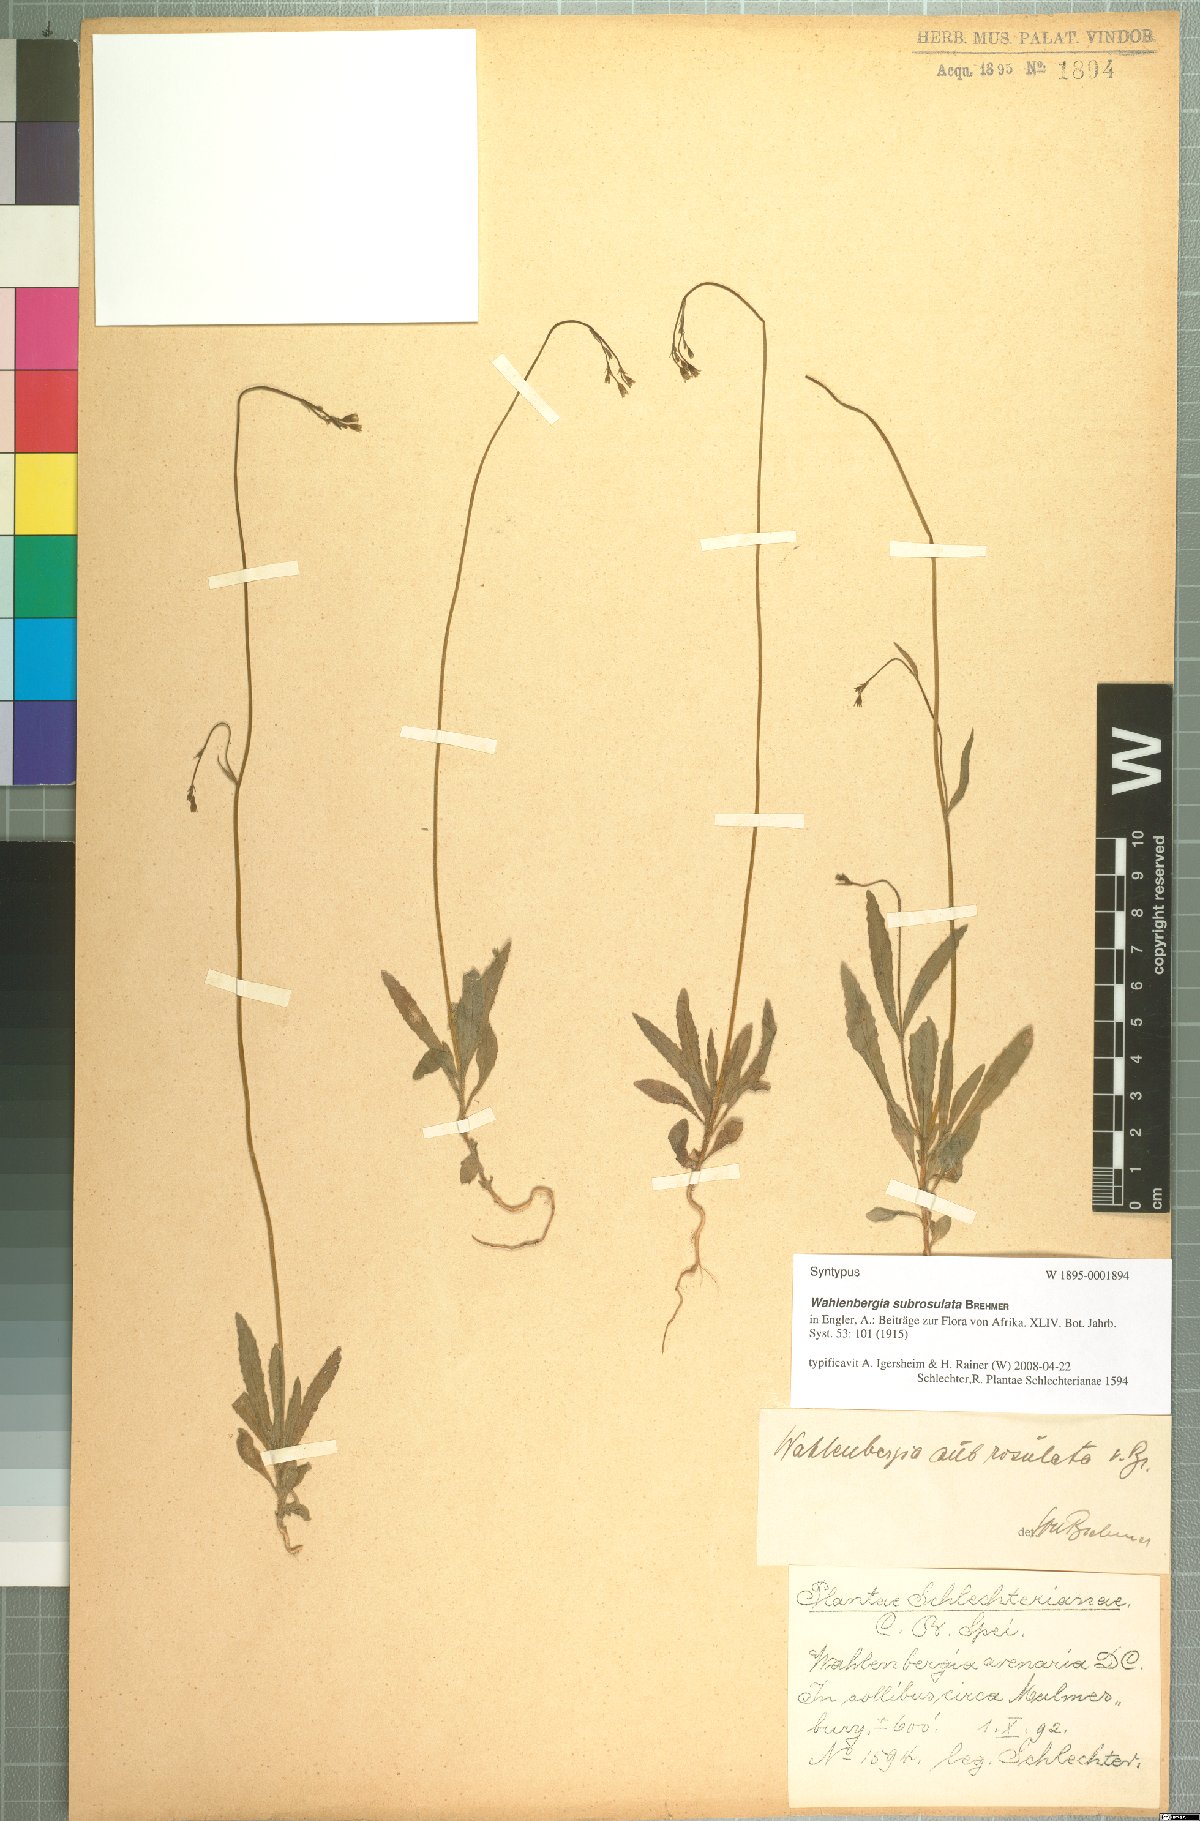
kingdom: Plantae
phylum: Tracheophyta
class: Magnoliopsida
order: Asterales
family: Campanulaceae
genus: Wahlenbergia
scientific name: Wahlenbergia subrosulata
